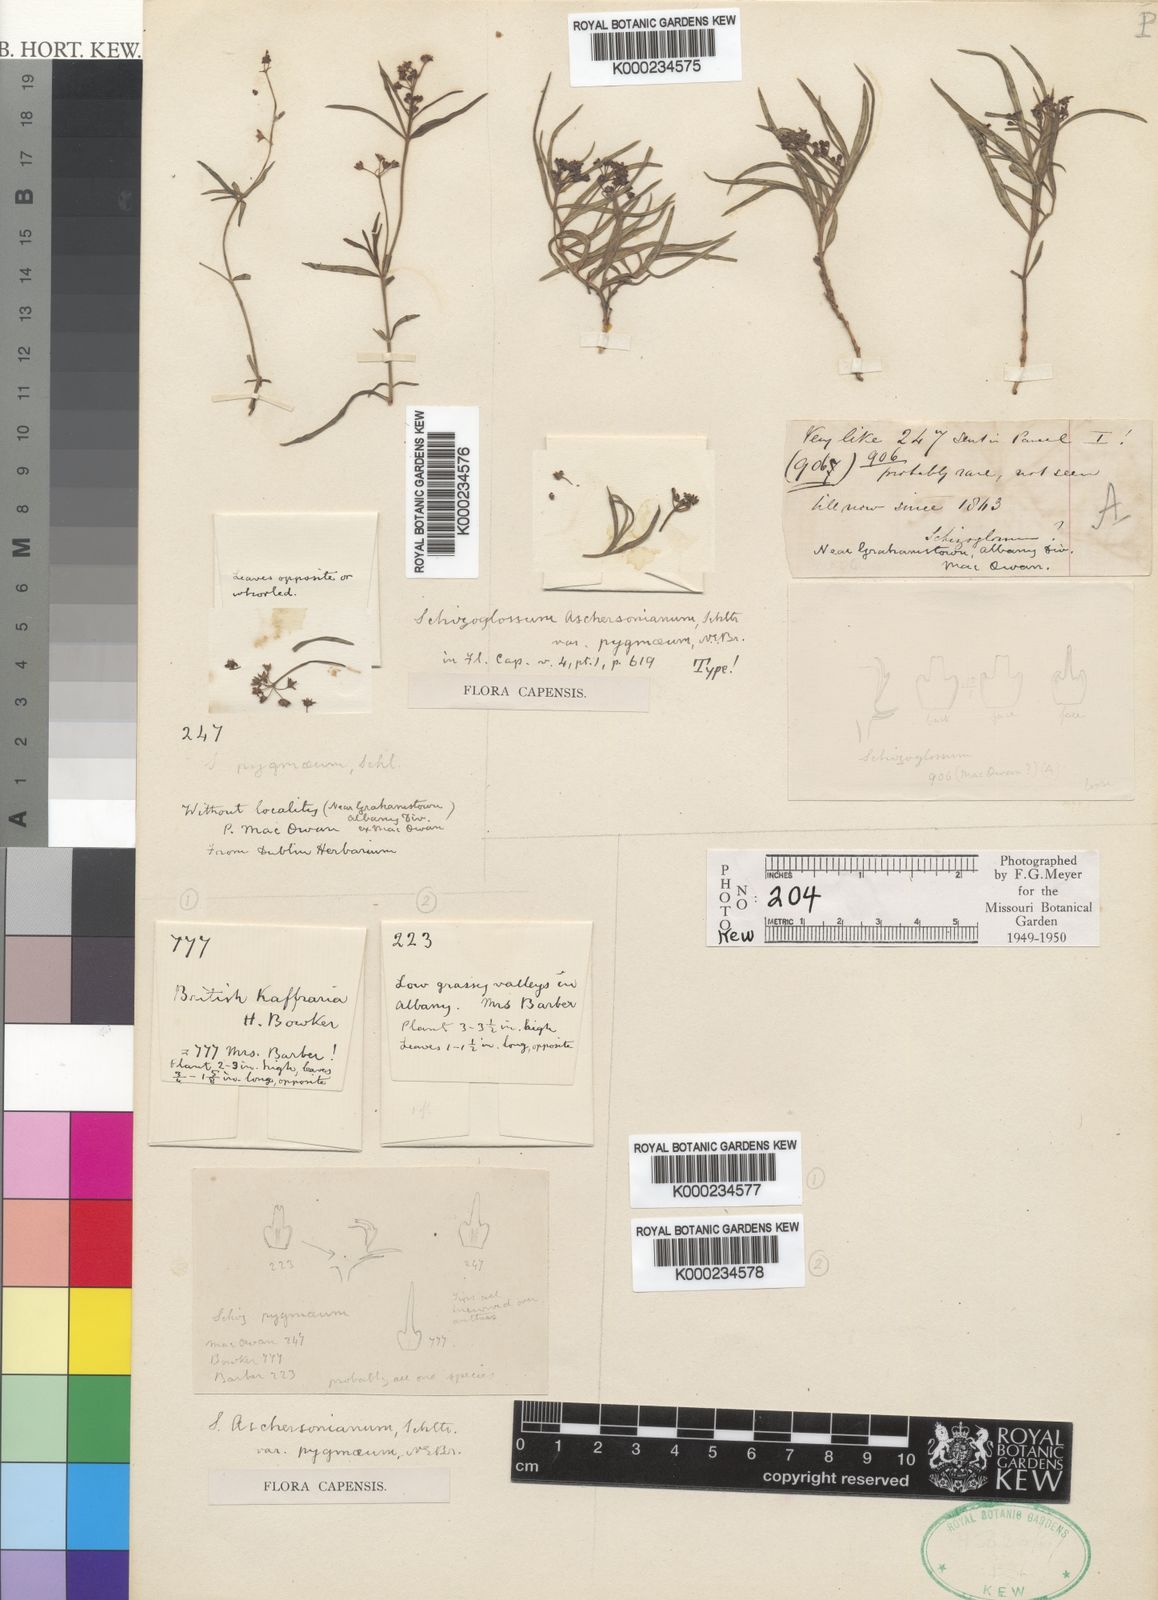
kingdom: Plantae
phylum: Tracheophyta
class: Magnoliopsida
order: Gentianales
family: Apocynaceae
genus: Schizoglossum
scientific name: Schizoglossum aschersonianum
